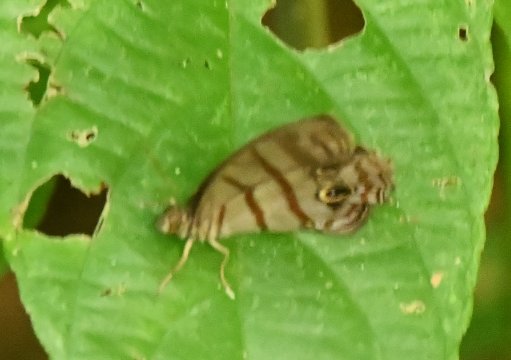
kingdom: Animalia
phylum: Arthropoda
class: Insecta
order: Lepidoptera
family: Satyridae
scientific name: Satyridae
